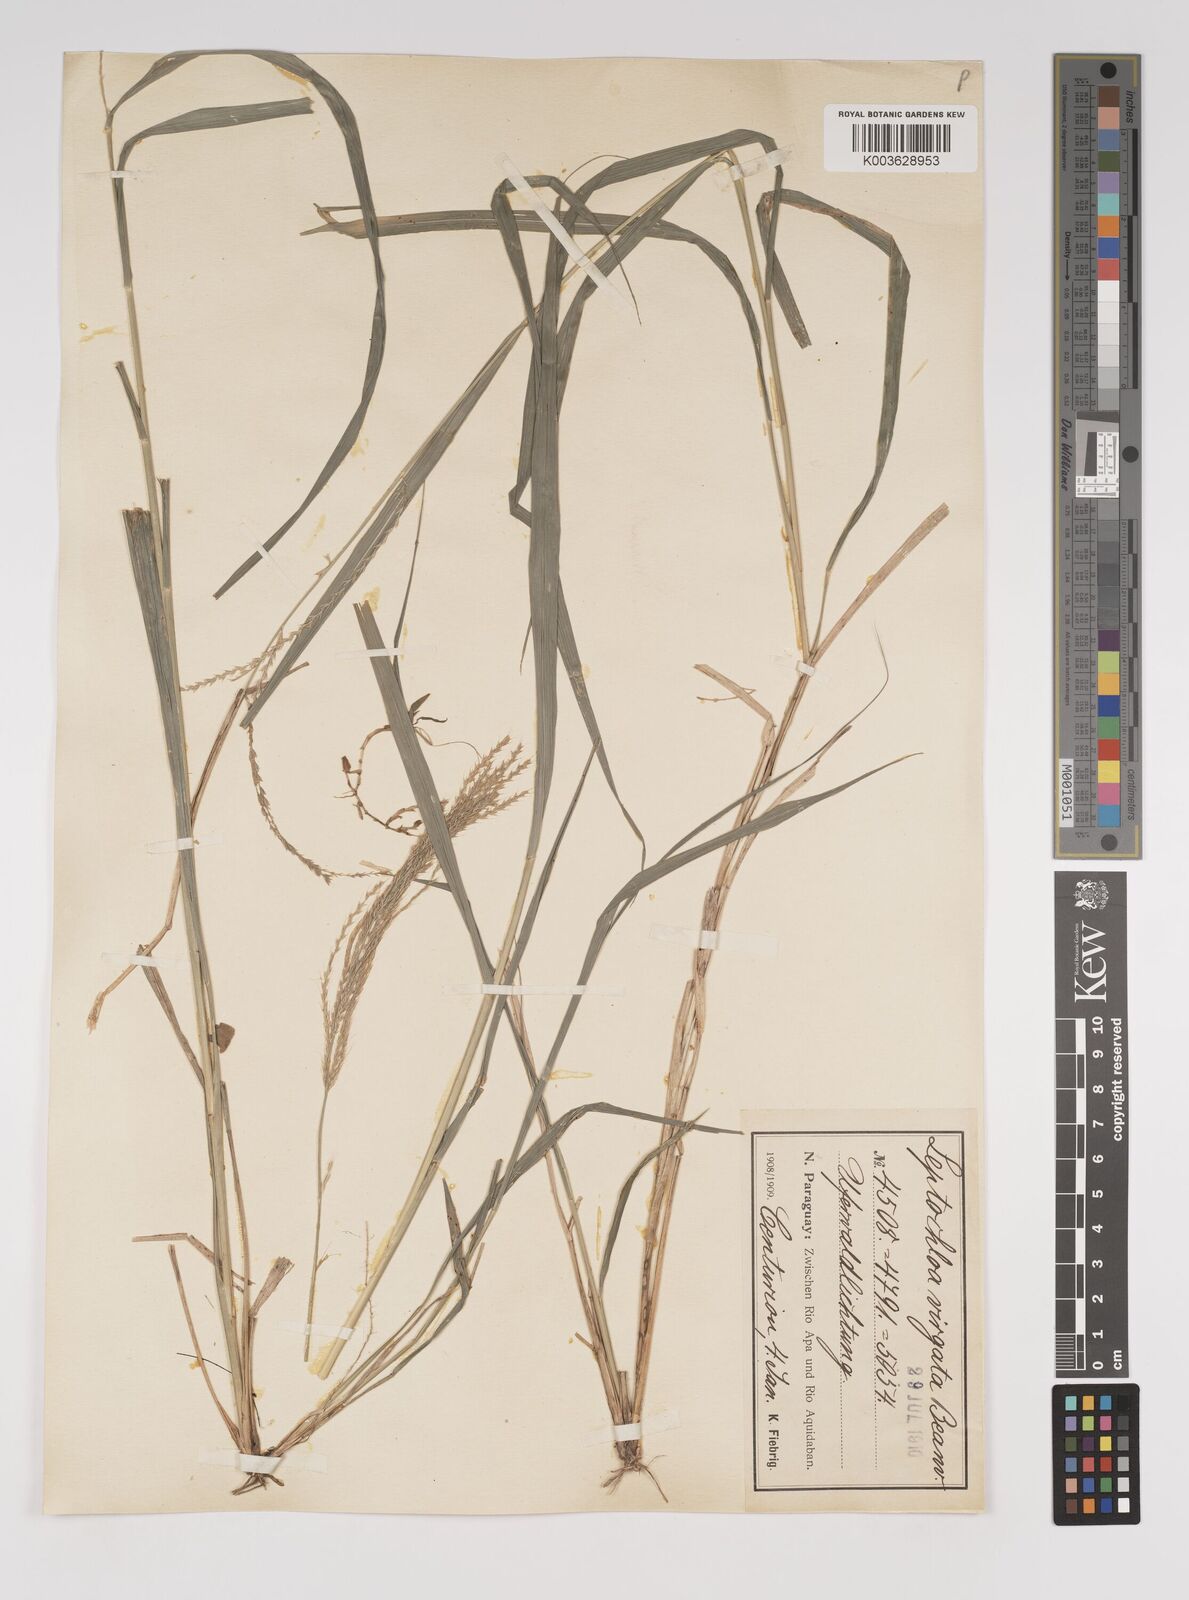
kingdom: Plantae
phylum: Tracheophyta
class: Liliopsida
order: Poales
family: Poaceae
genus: Leptochloa
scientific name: Leptochloa virgata
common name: Tropical sprangletop
